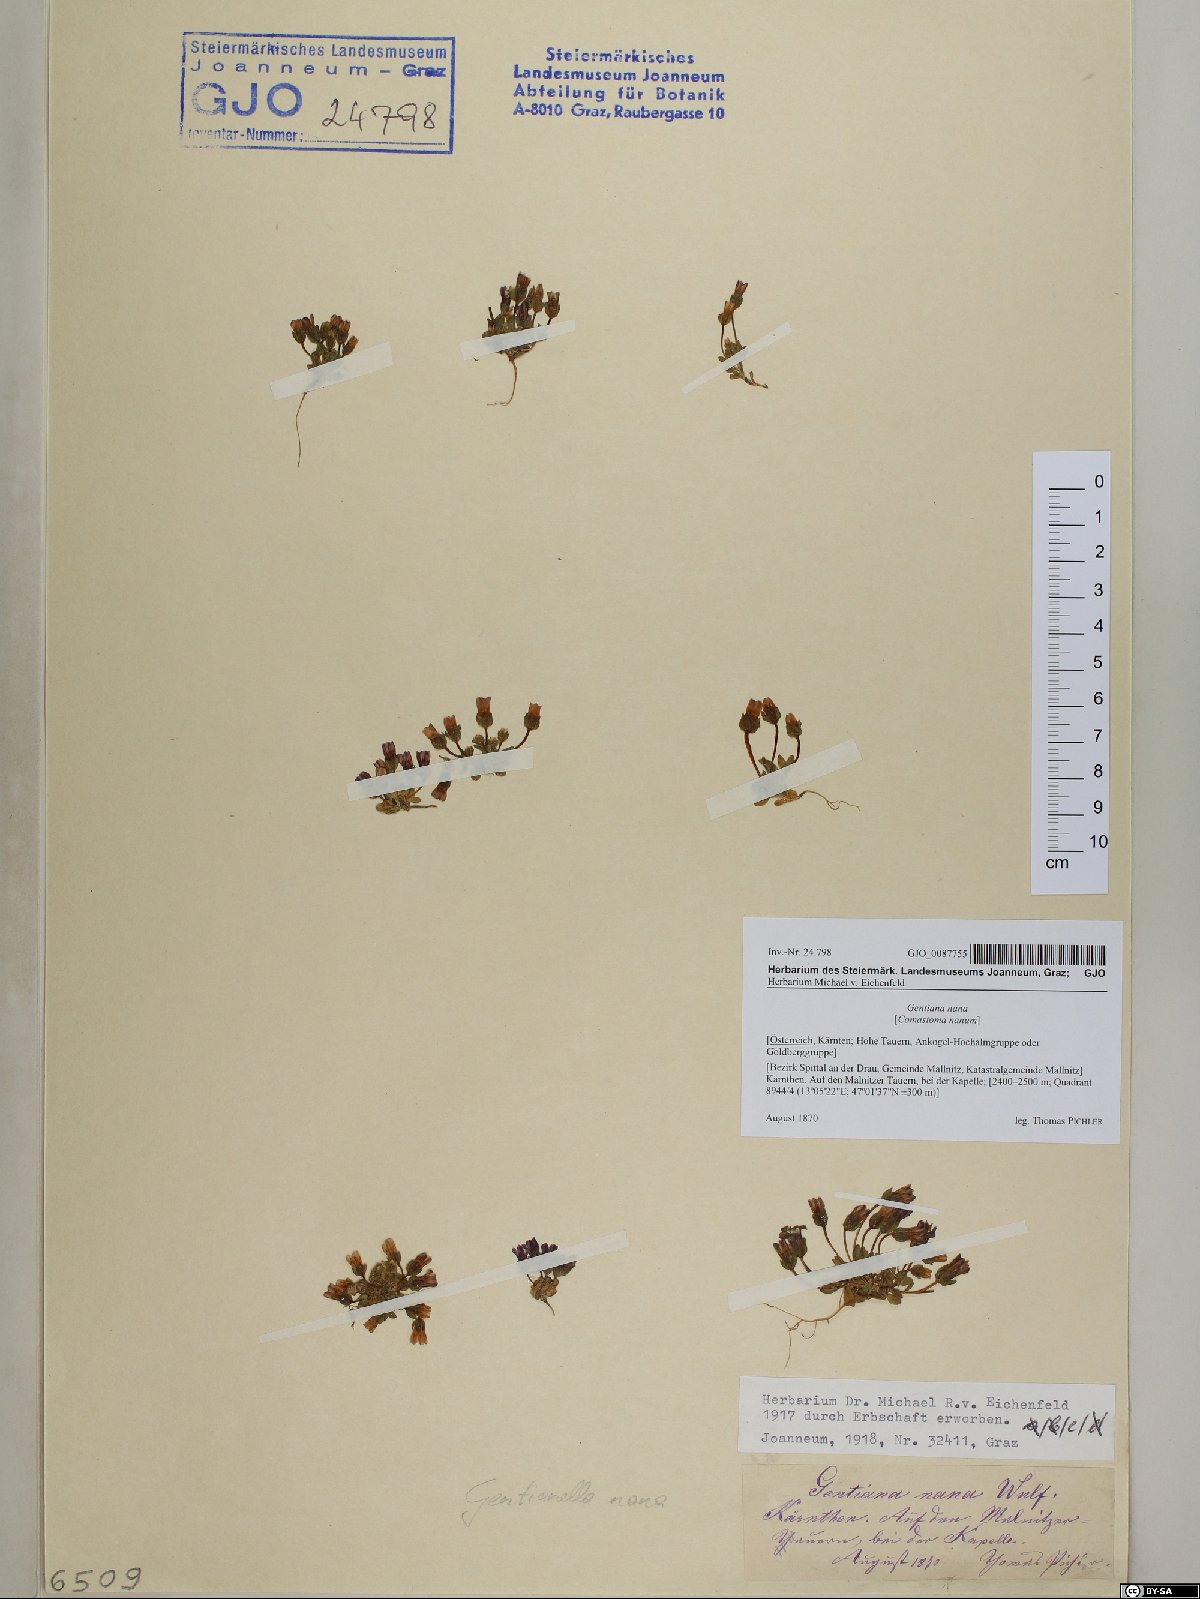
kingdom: Plantae
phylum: Tracheophyta
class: Magnoliopsida
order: Gentianales
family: Gentianaceae
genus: Comastoma
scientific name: Comastoma nanum
